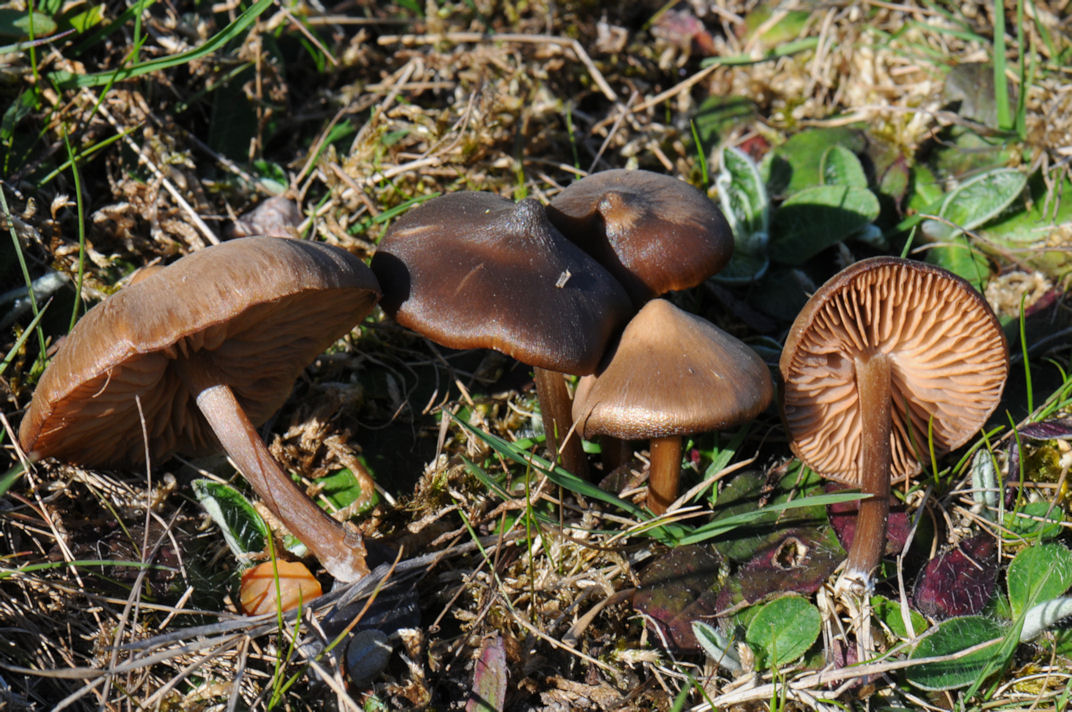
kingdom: Fungi
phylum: Basidiomycota
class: Agaricomycetes
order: Agaricales
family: Entolomataceae
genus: Entoloma
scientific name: Entoloma vernum
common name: vår-rødblad
